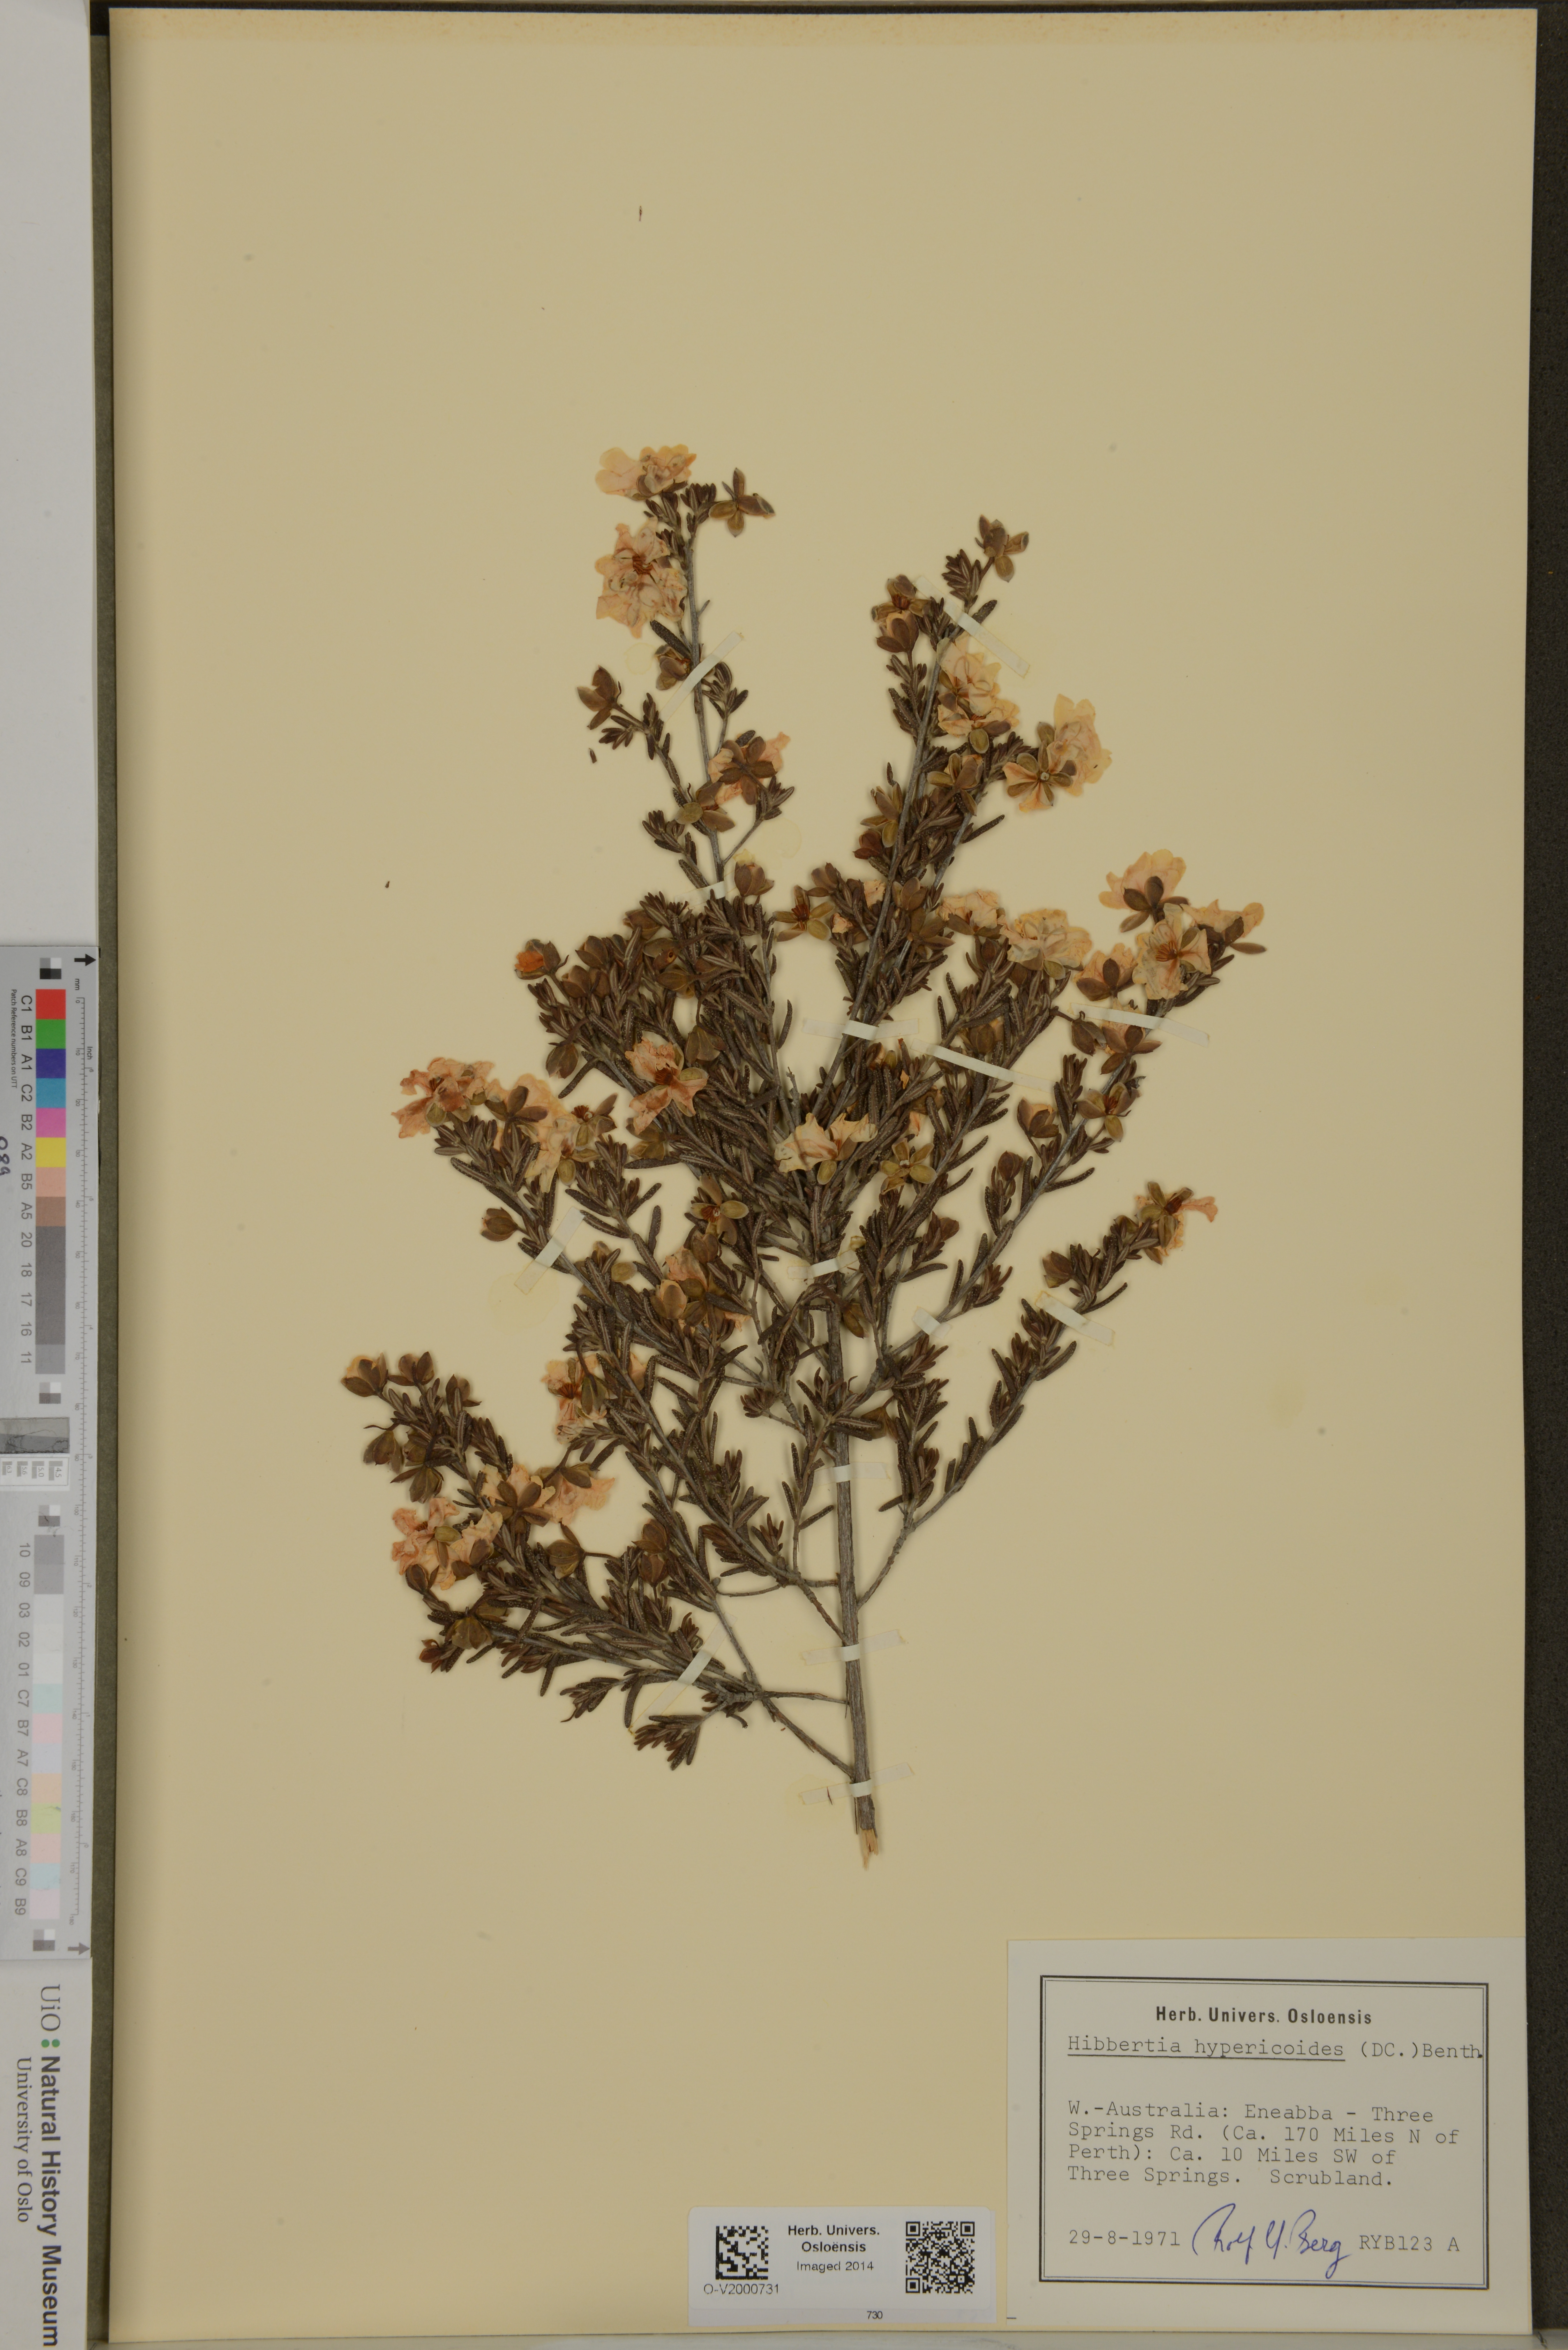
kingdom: Plantae
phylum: Tracheophyta
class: Magnoliopsida
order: Dilleniales
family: Dilleniaceae
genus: Hibbertia
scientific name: Hibbertia hypericoides
